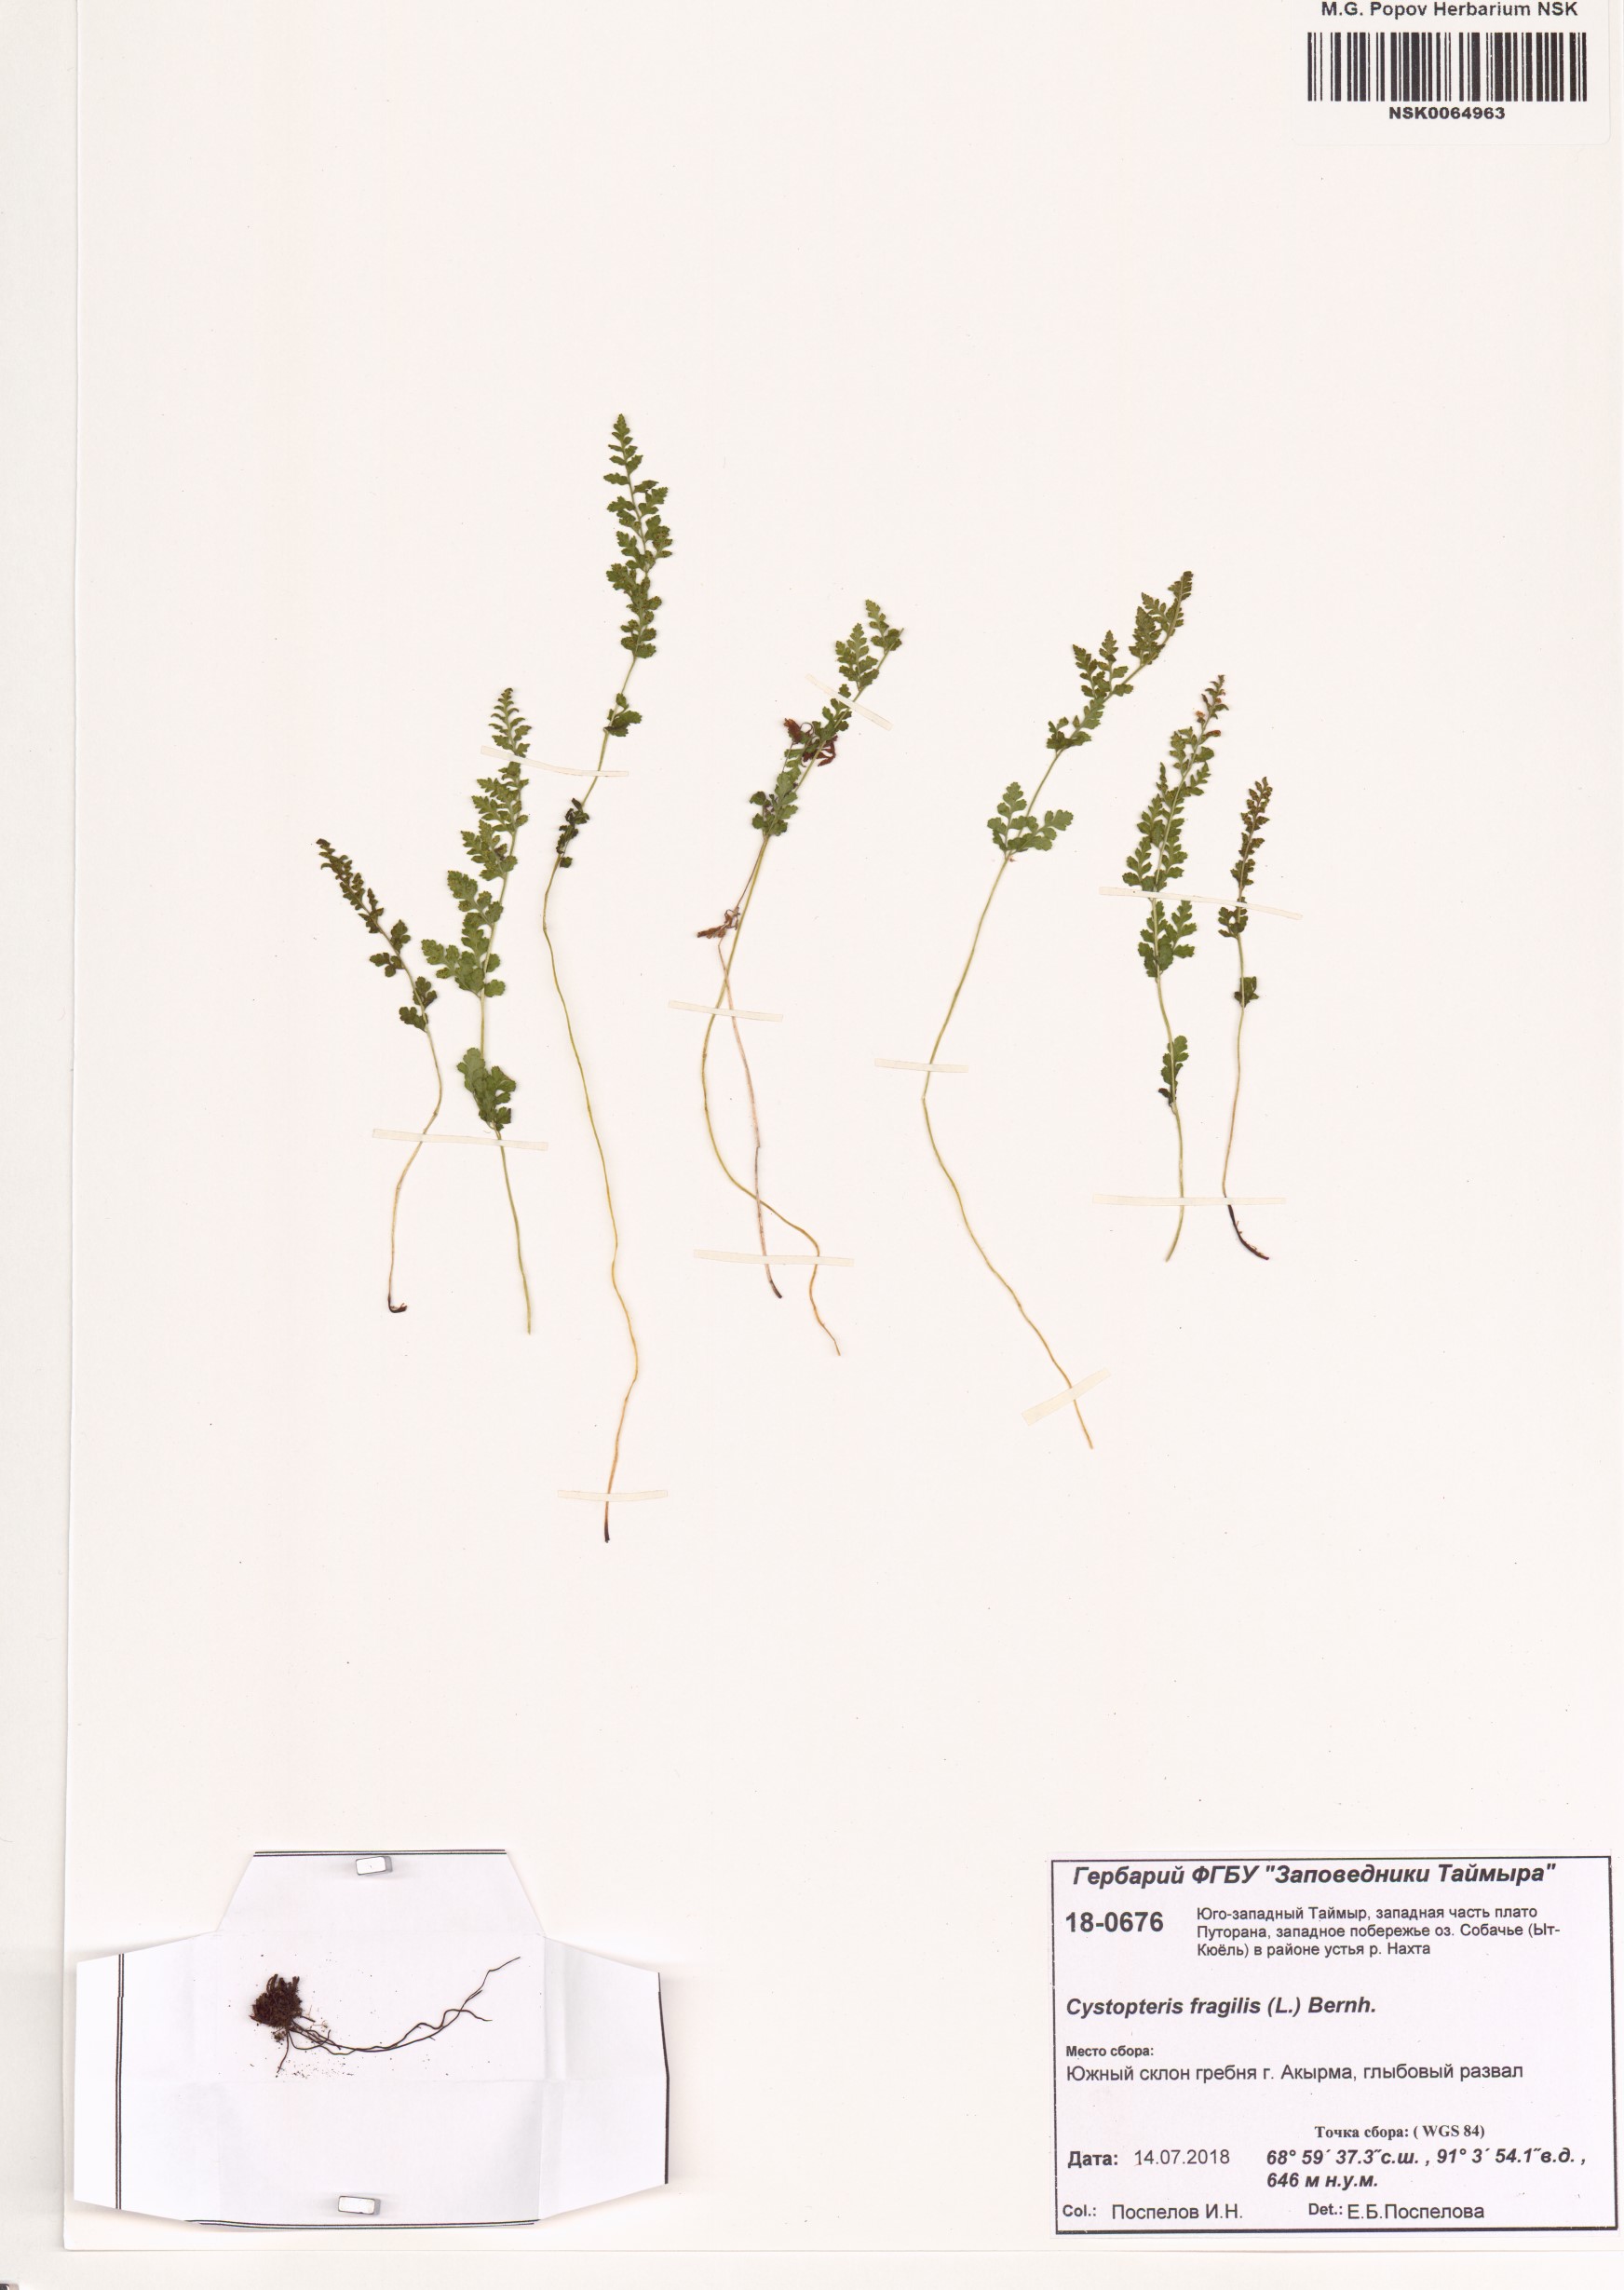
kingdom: Plantae
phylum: Tracheophyta
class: Polypodiopsida
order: Polypodiales
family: Cystopteridaceae
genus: Cystopteris
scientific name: Cystopteris fragilis
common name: Brittle bladder fern
